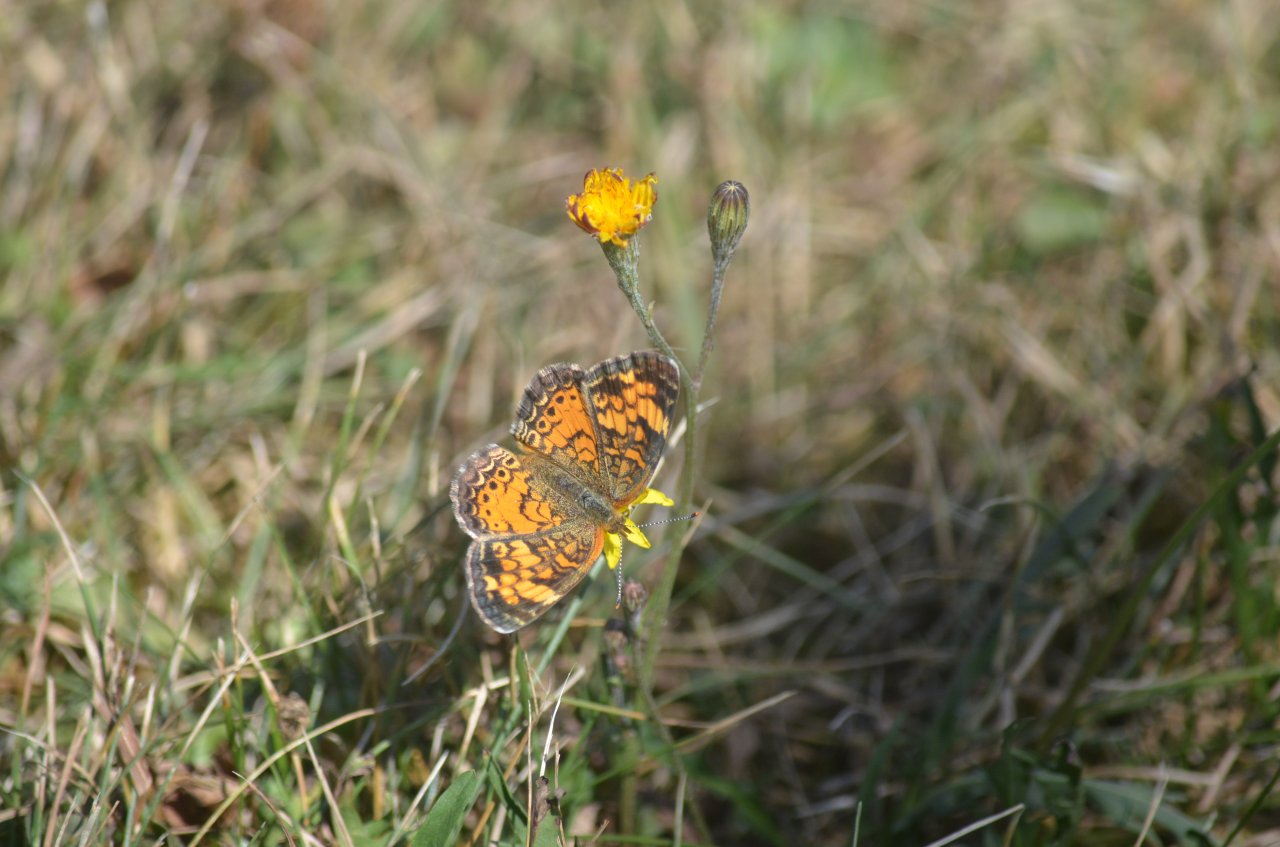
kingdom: Animalia
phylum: Arthropoda
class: Insecta
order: Lepidoptera
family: Nymphalidae
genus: Phyciodes
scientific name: Phyciodes tharos
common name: Northern Crescent
